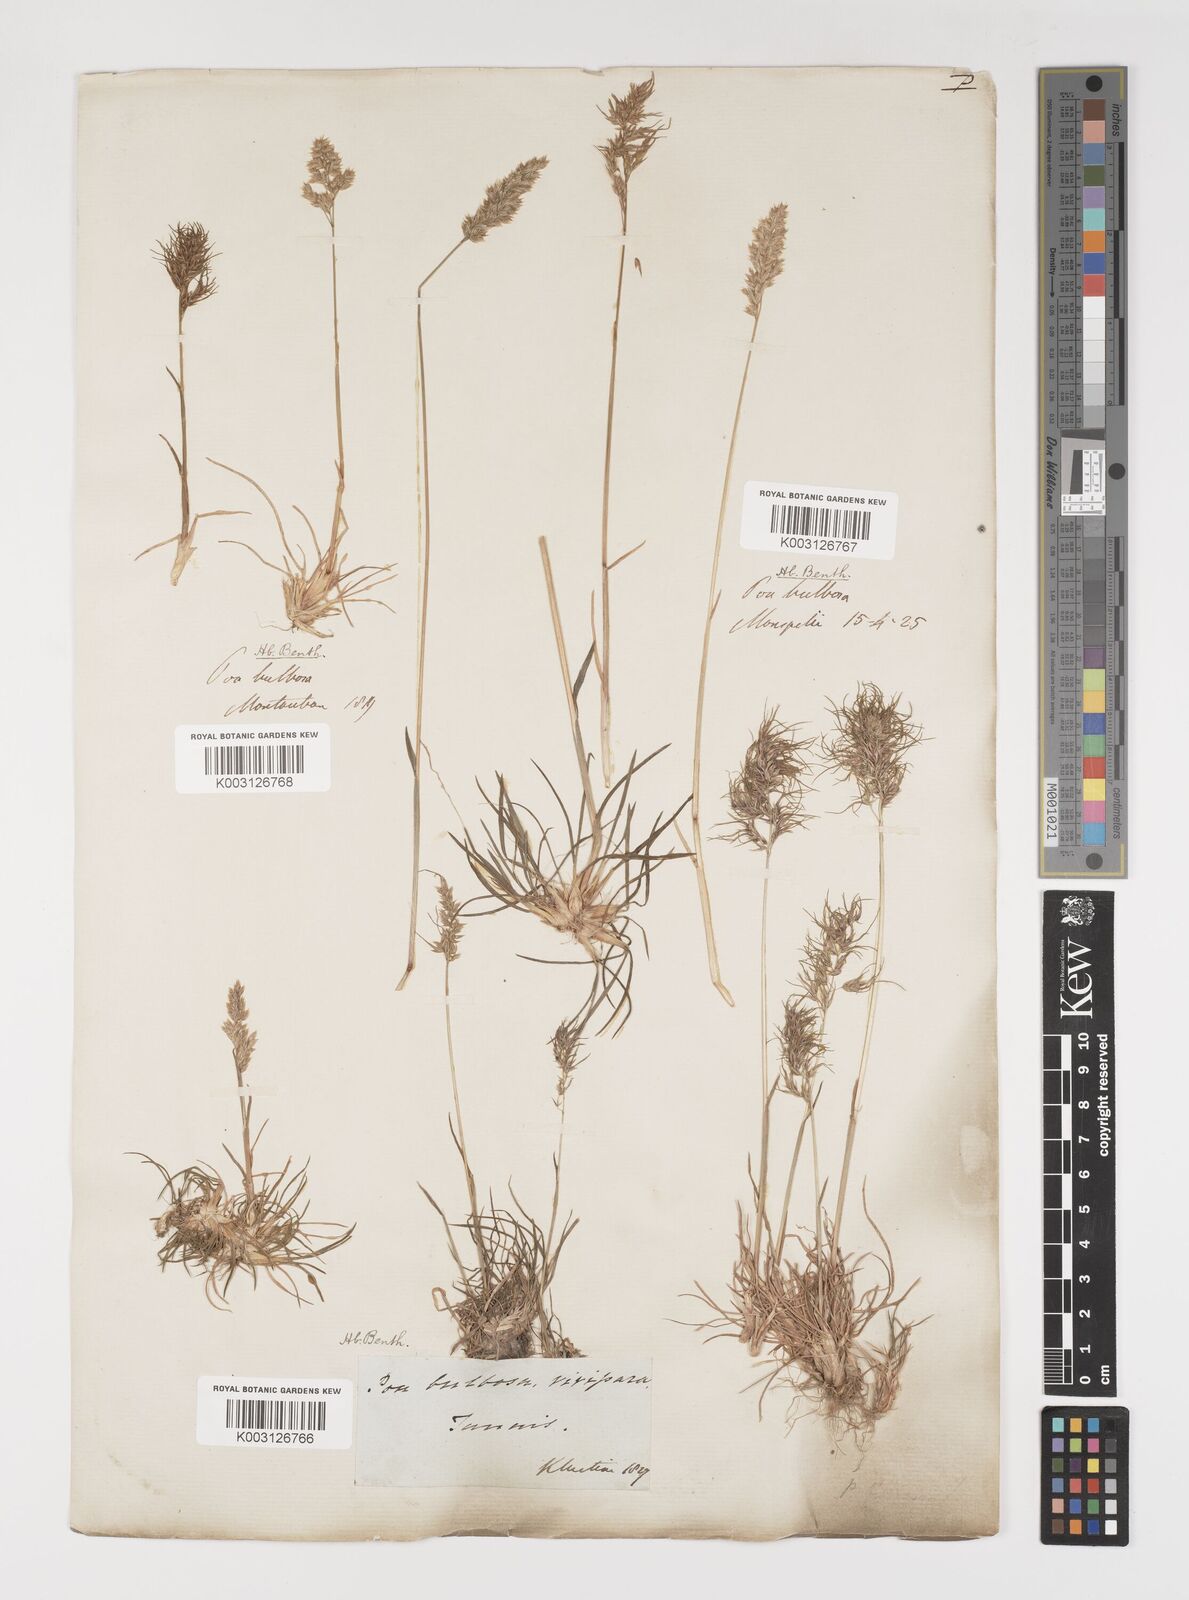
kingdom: Plantae
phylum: Tracheophyta
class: Liliopsida
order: Poales
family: Poaceae
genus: Poa
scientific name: Poa bulbosa
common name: Bulbous bluegrass
